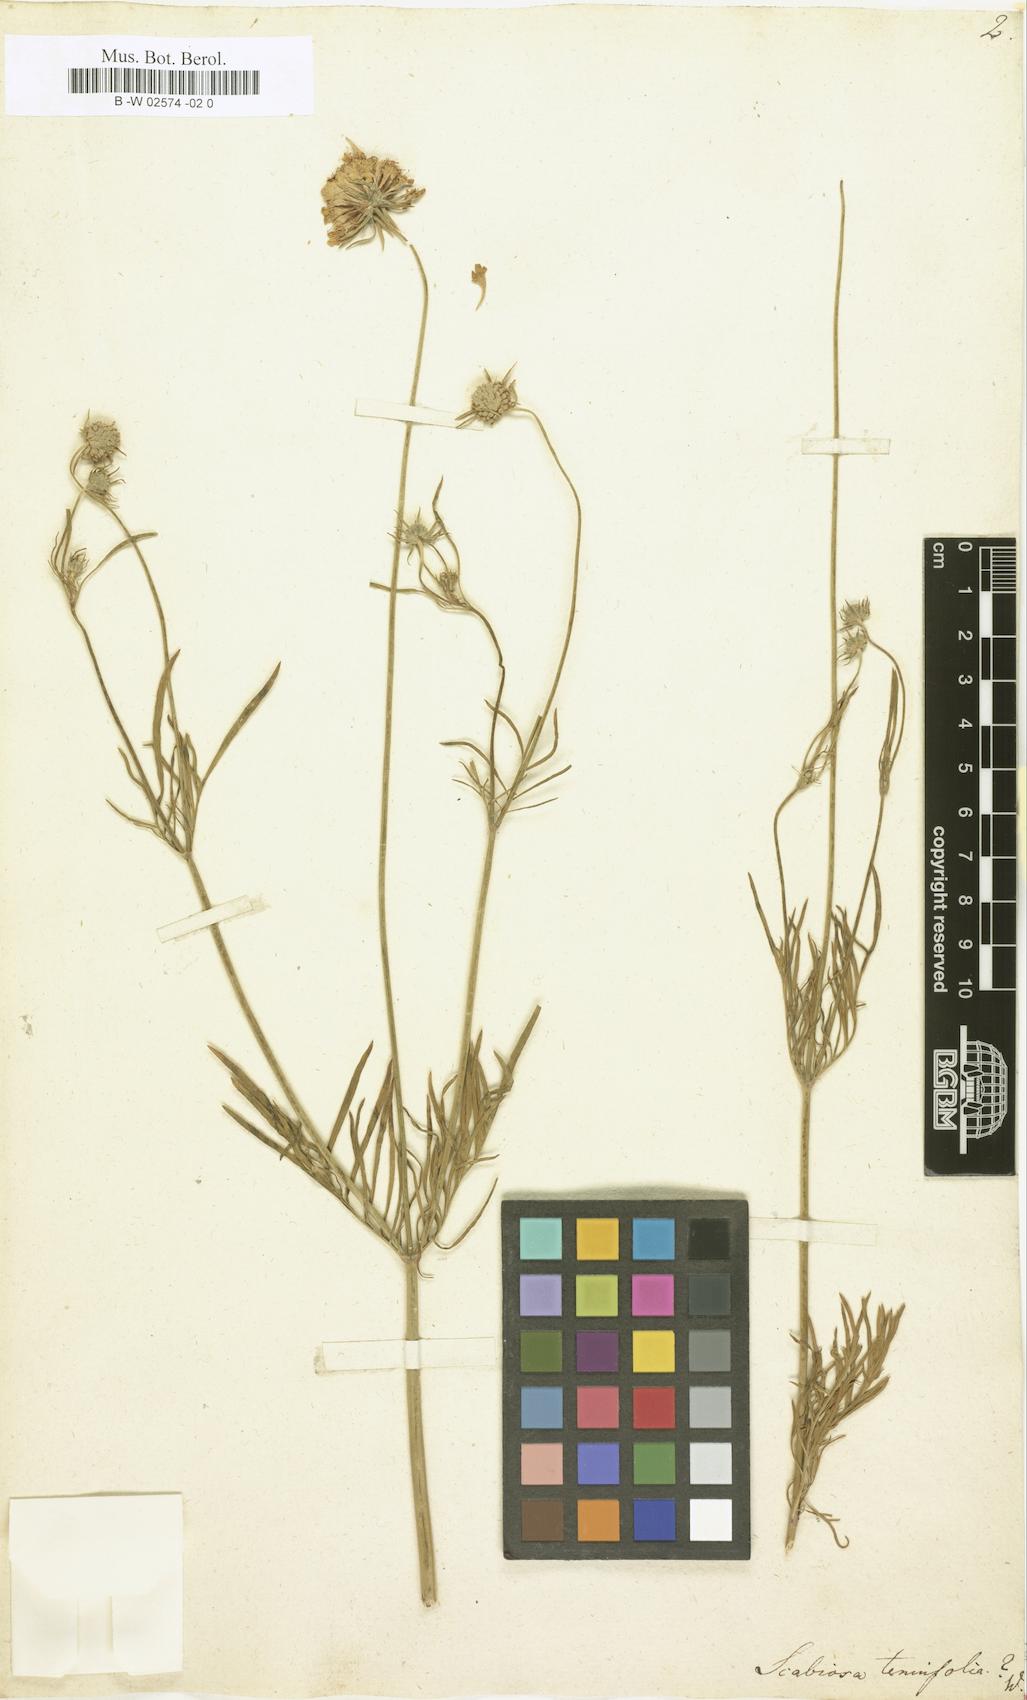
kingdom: Plantae
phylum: Tracheophyta
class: Magnoliopsida
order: Dipsacales
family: Caprifoliaceae
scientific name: Caprifoliaceae
